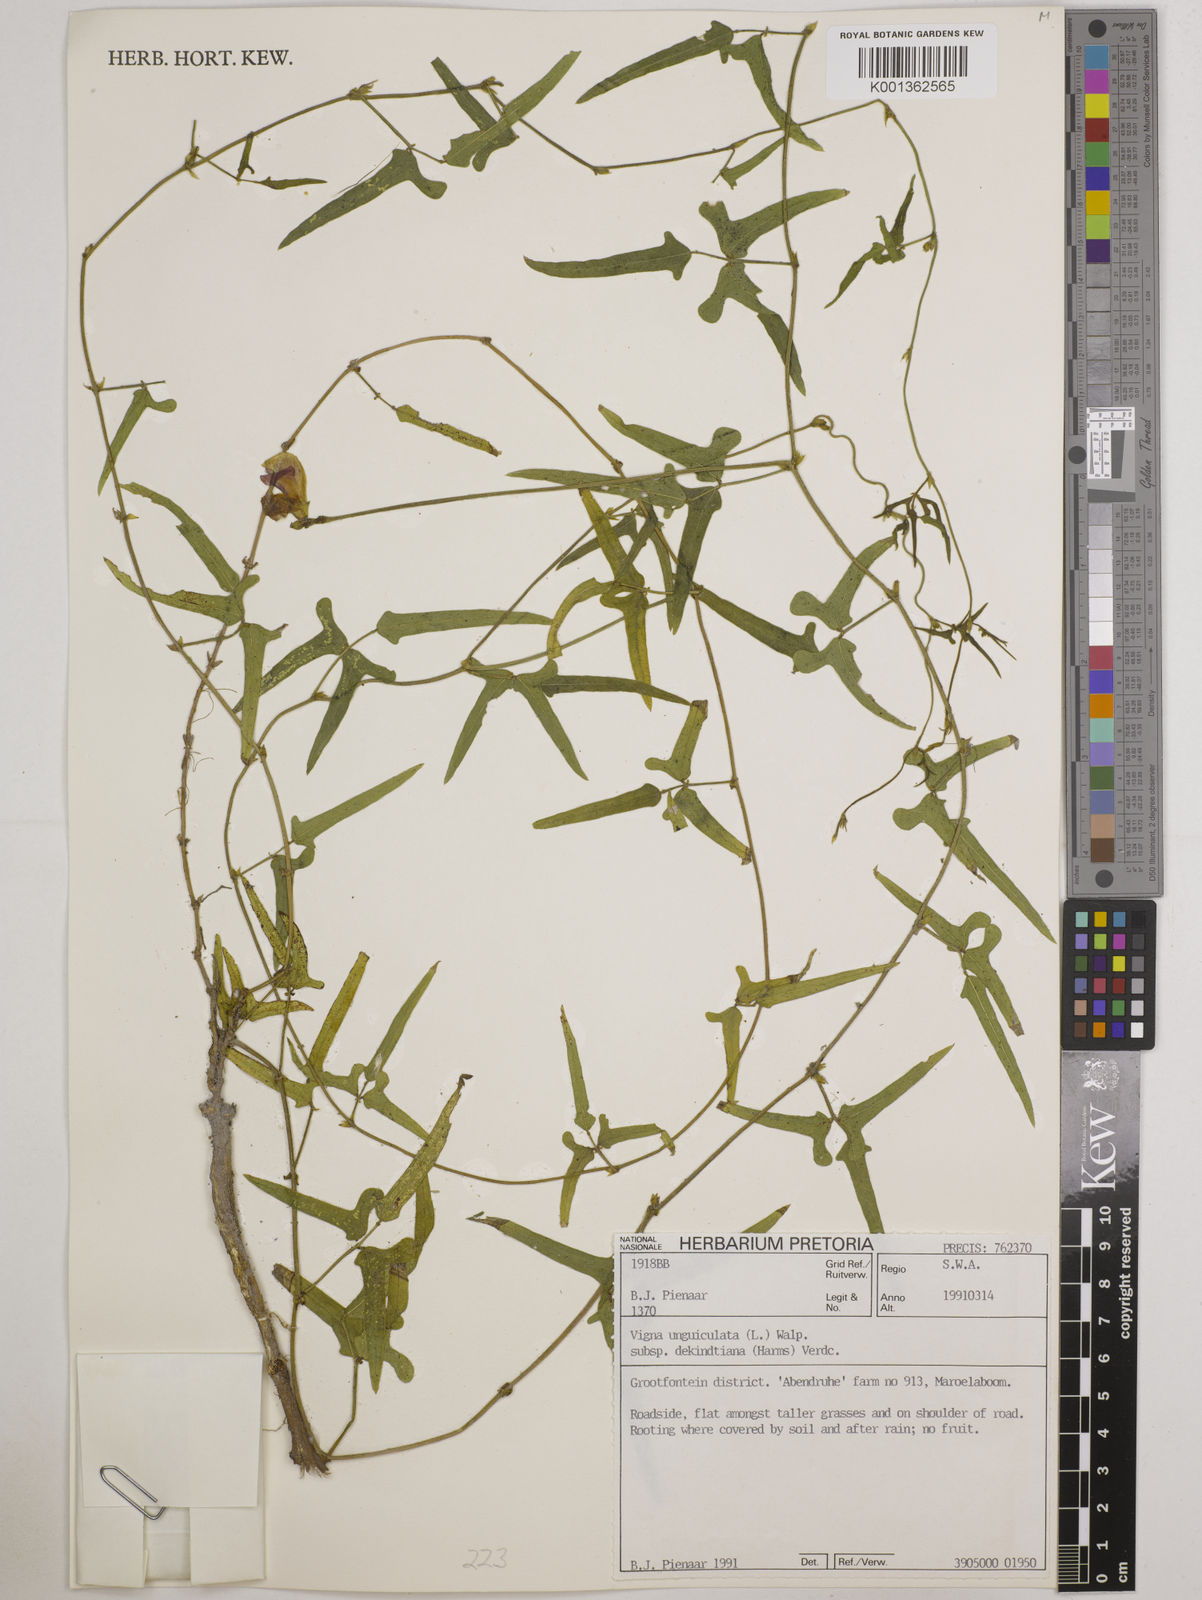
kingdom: Plantae
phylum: Tracheophyta
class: Magnoliopsida
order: Fabales
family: Fabaceae
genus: Vigna
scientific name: Vigna unguiculata
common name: Cowpea
